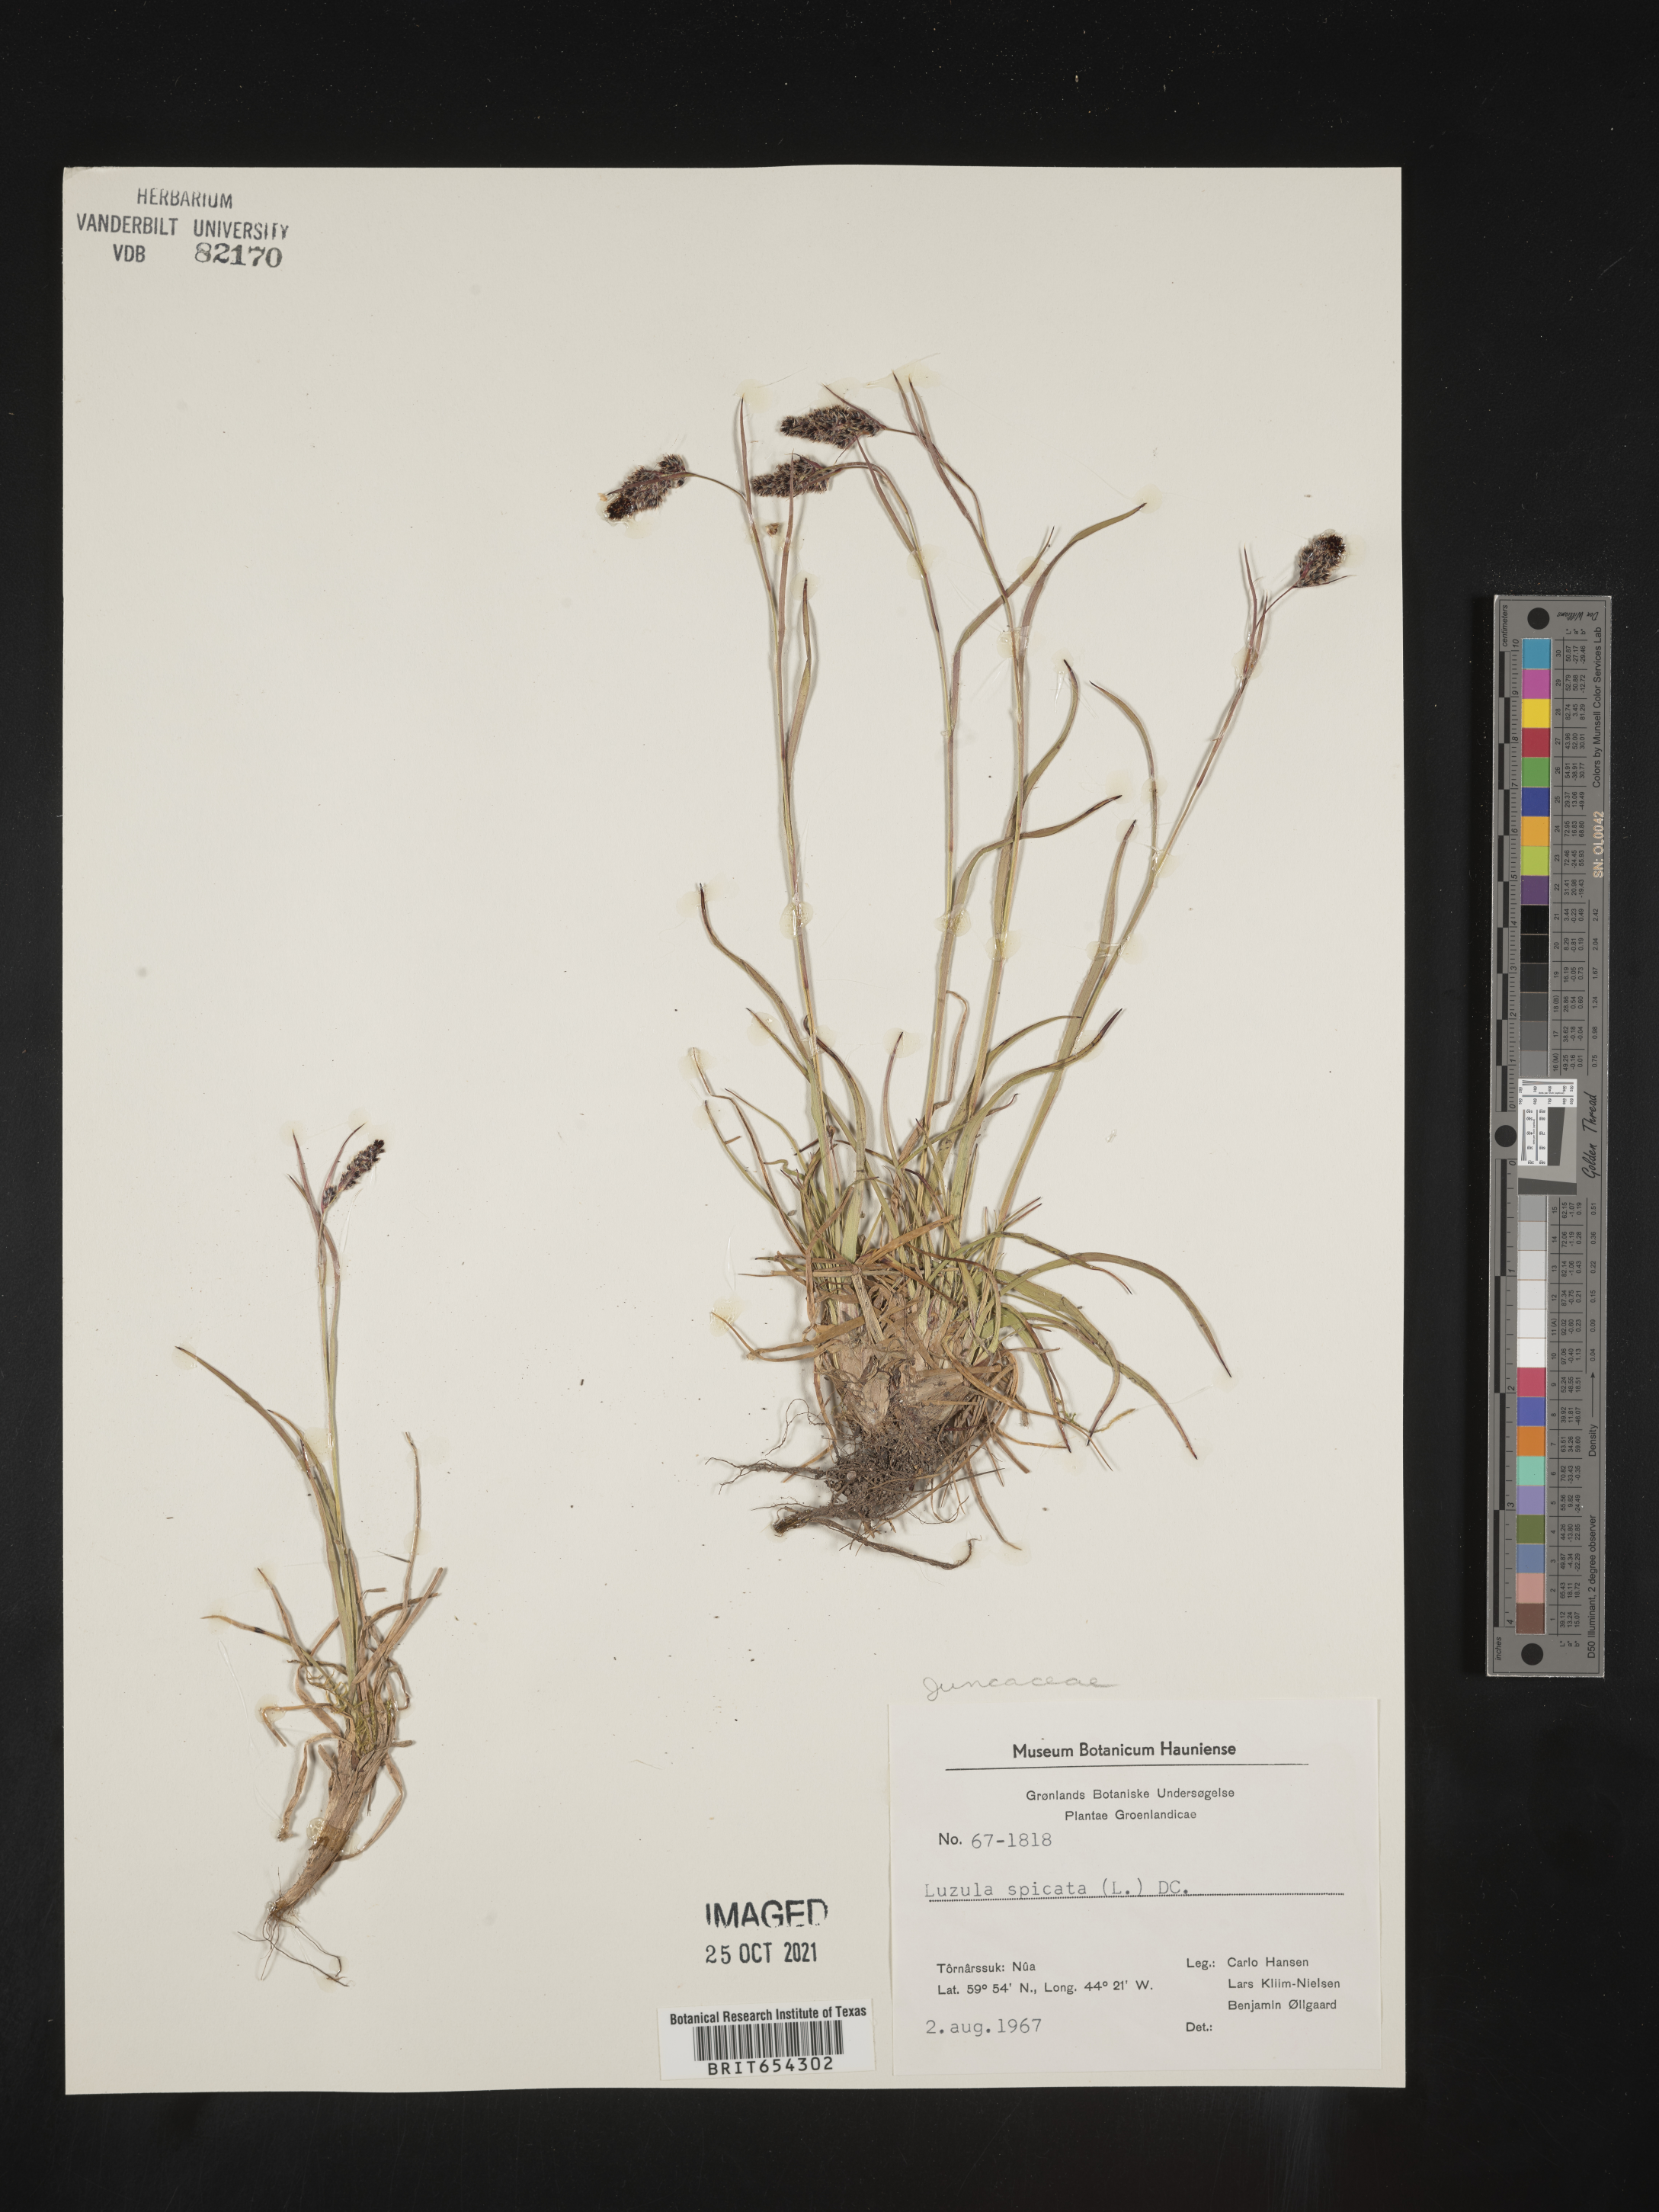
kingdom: Plantae
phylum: Tracheophyta
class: Liliopsida
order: Poales
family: Juncaceae
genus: Luzula
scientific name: Luzula
